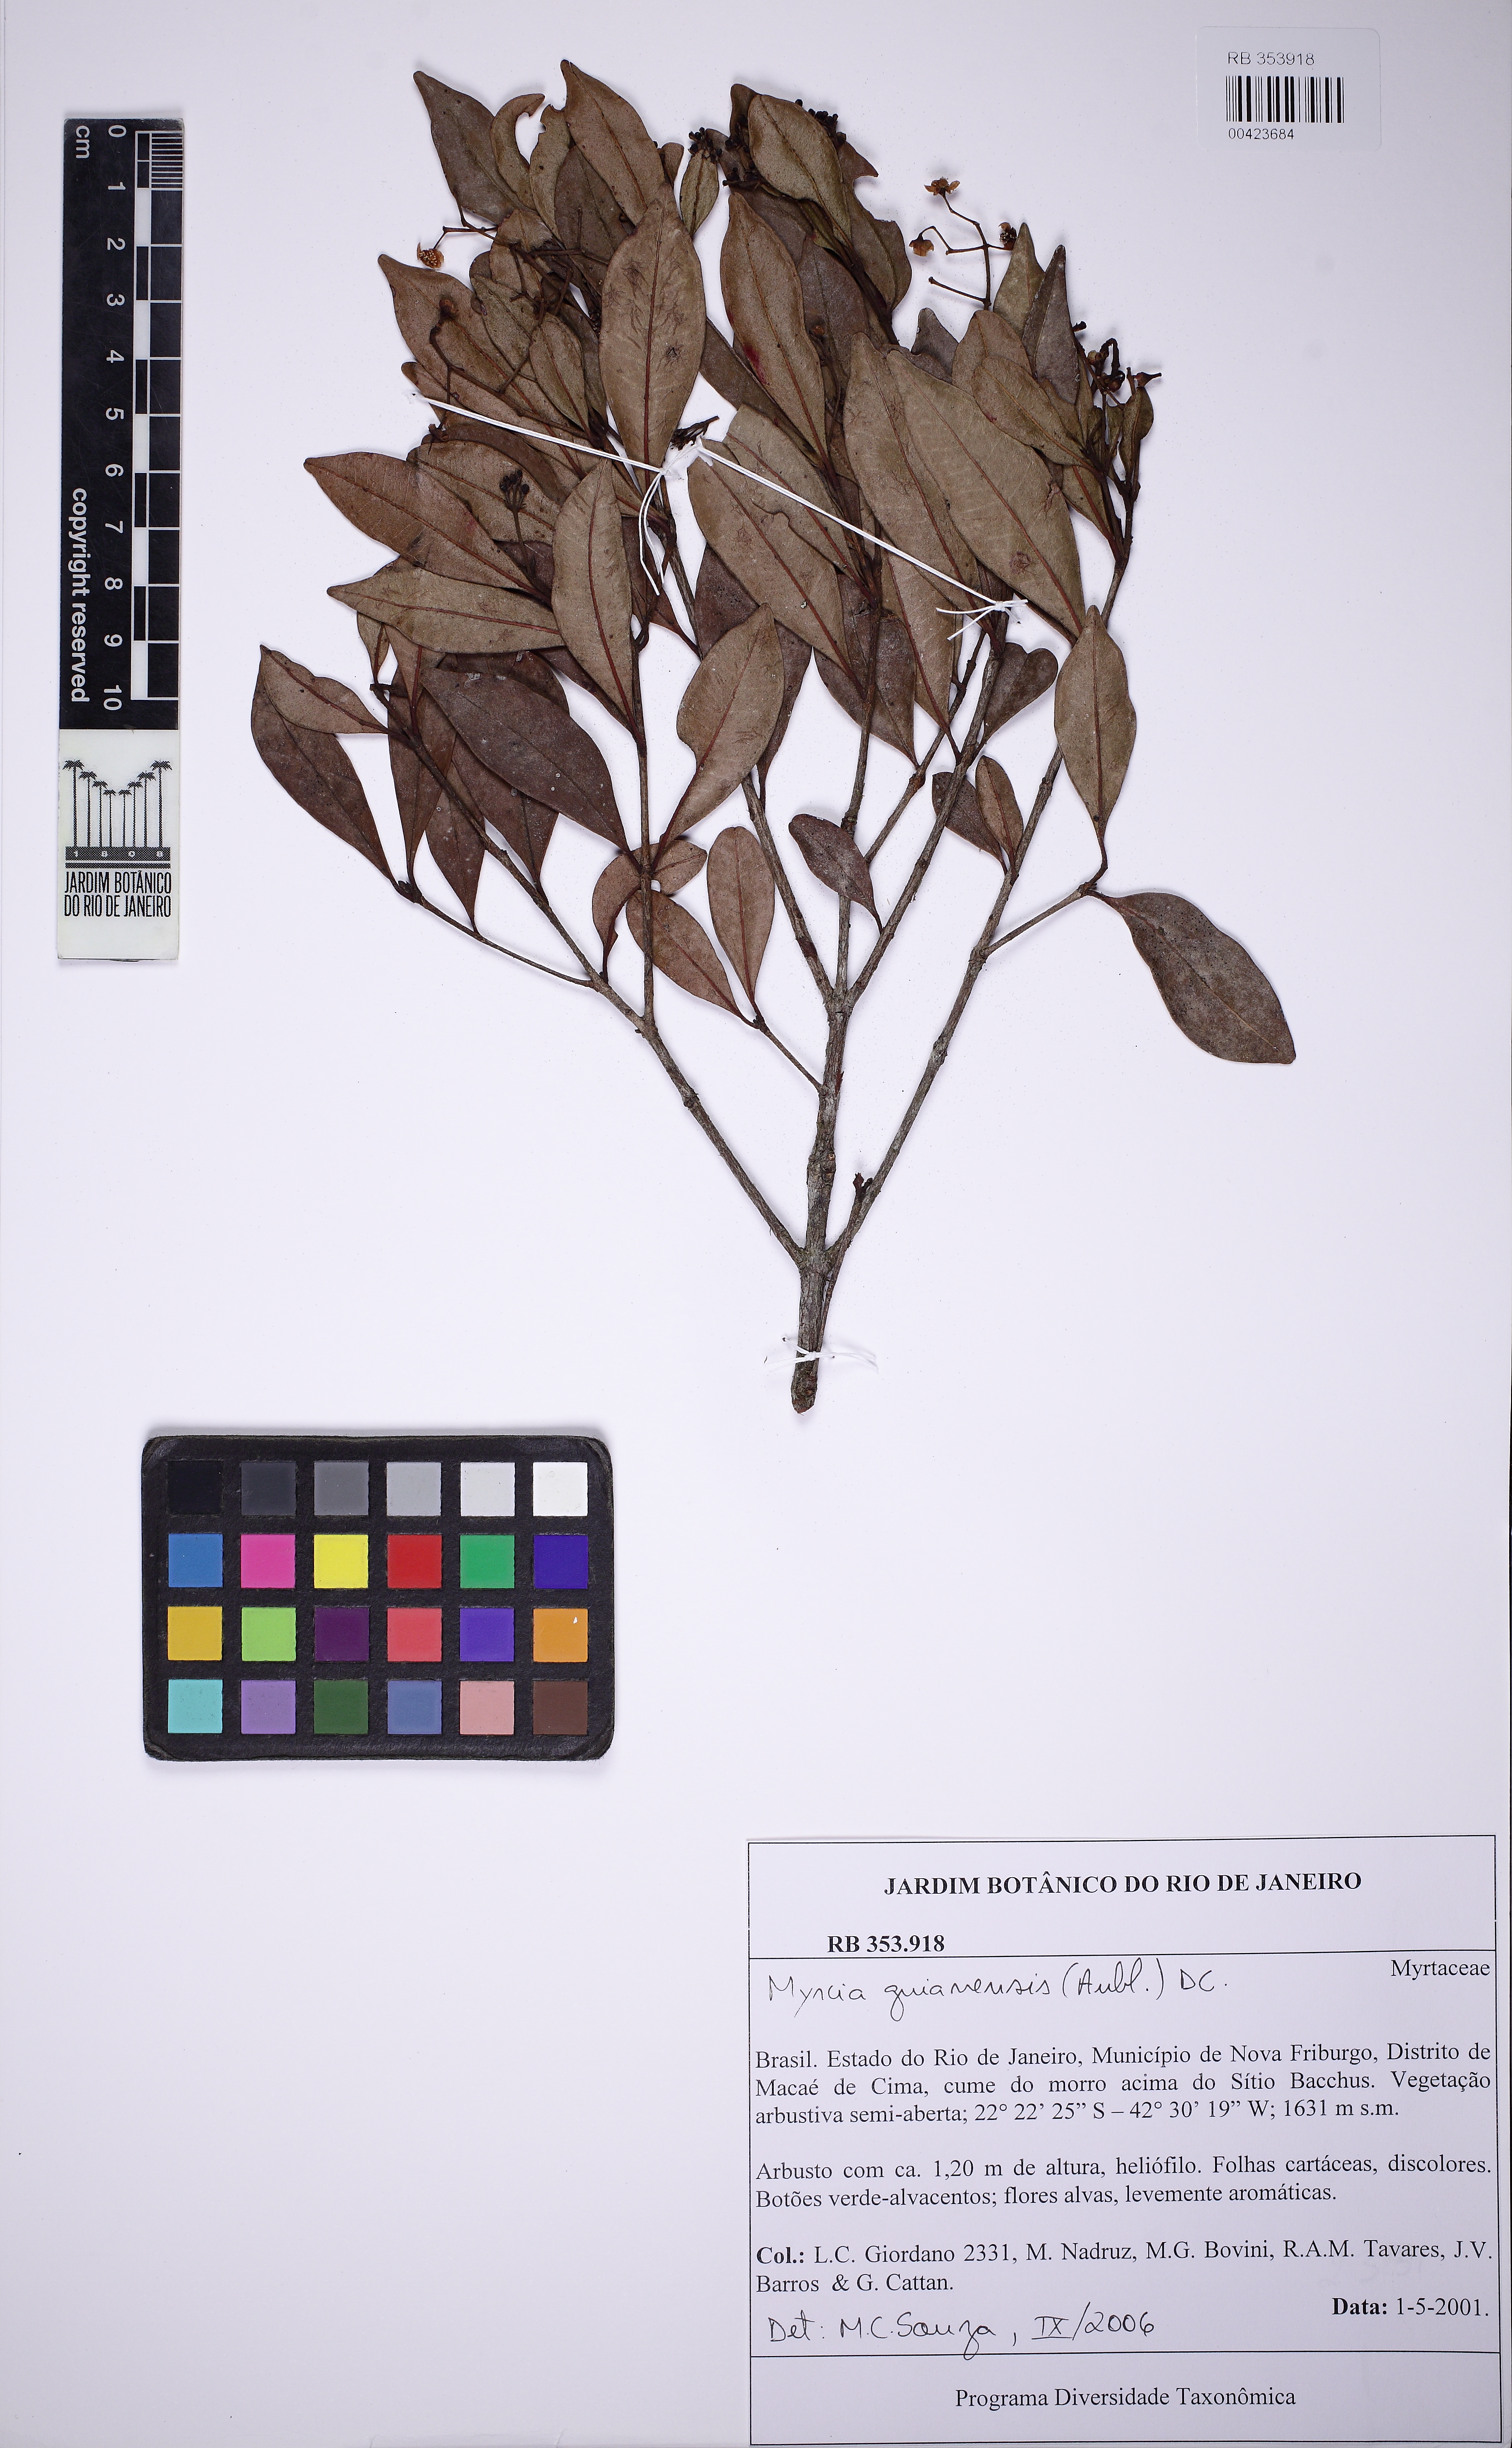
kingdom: Plantae
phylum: Tracheophyta
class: Magnoliopsida
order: Myrtales
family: Myrtaceae
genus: Myrcia
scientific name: Myrcia guianensis
